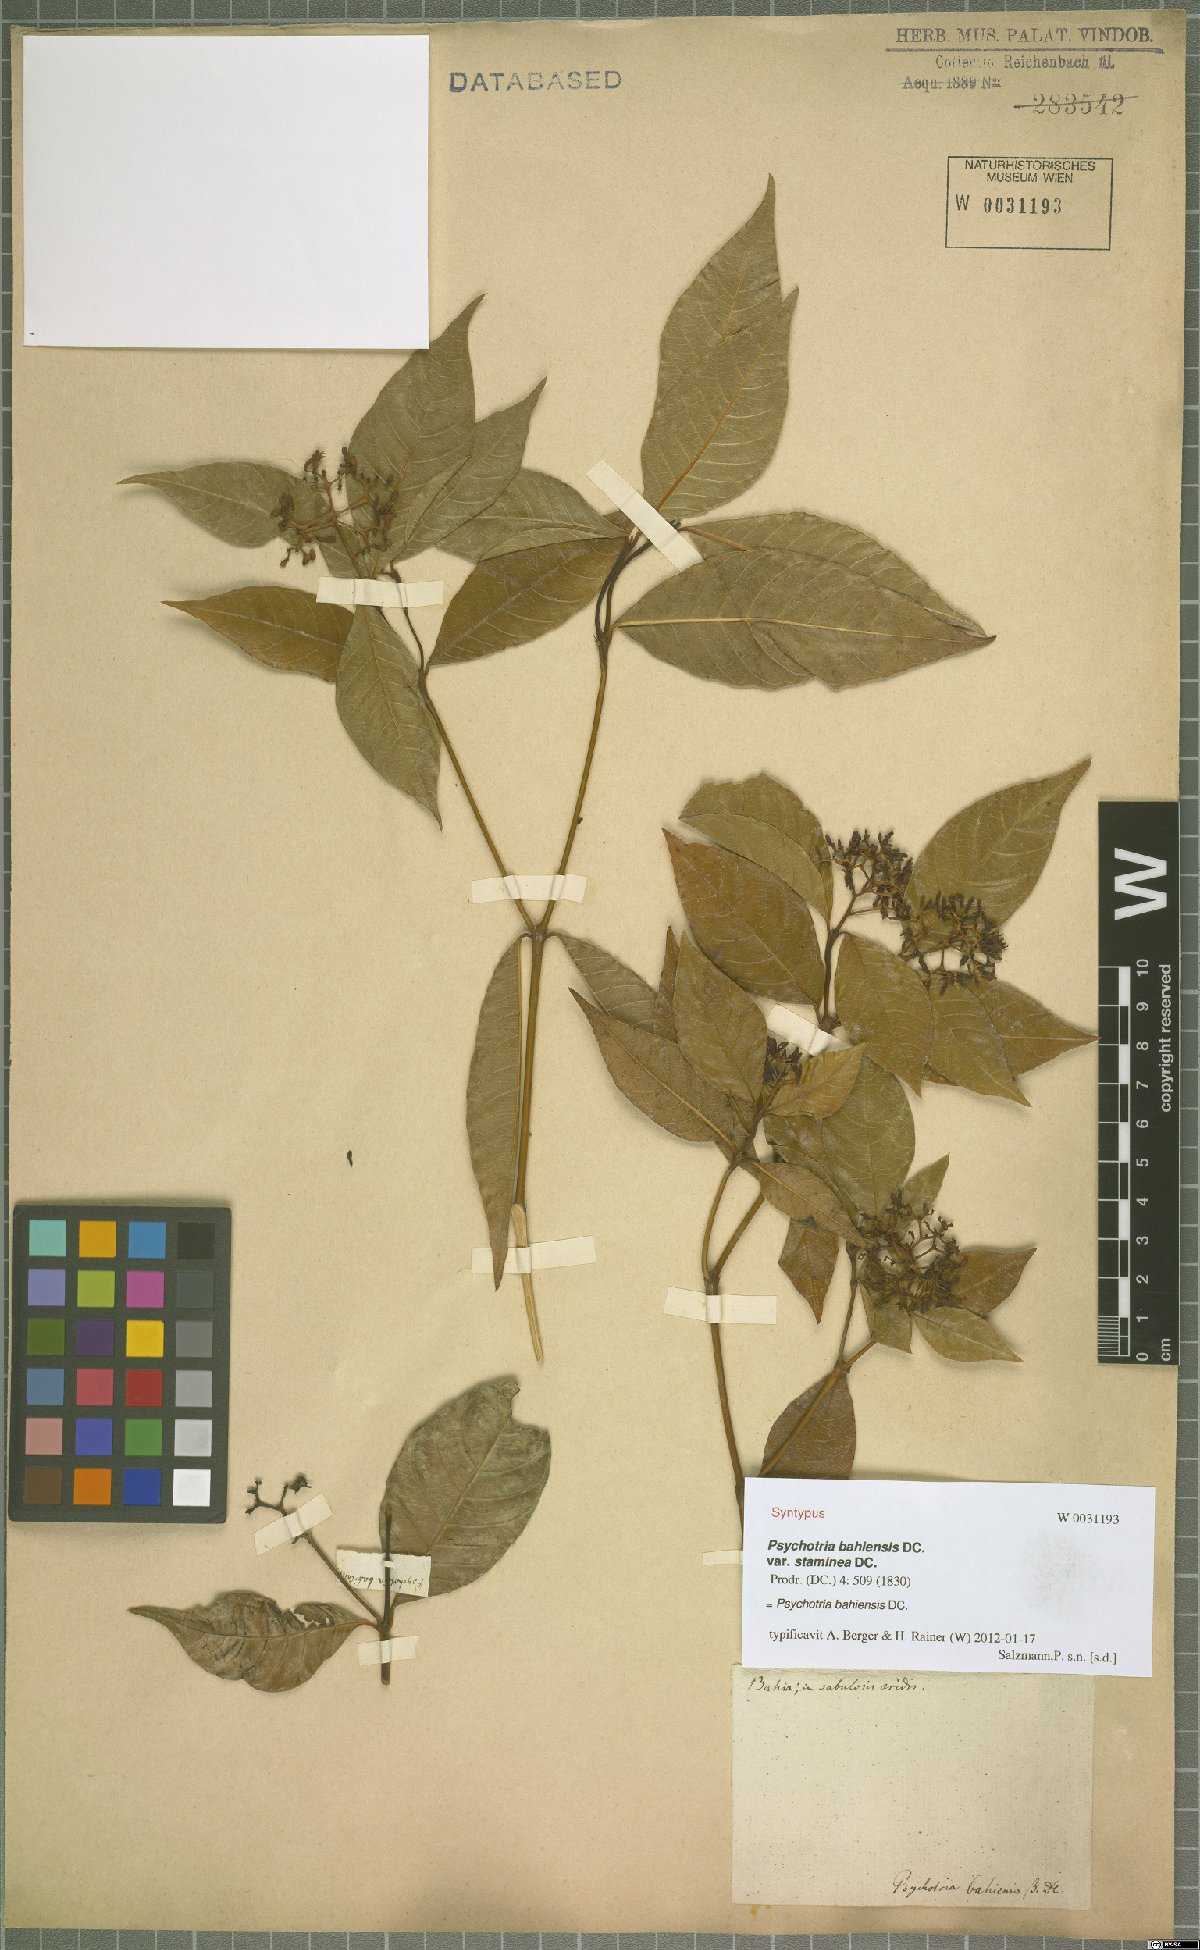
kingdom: Plantae
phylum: Tracheophyta
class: Magnoliopsida
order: Gentianales
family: Rubiaceae
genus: Psychotria
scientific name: Psychotria bahiensis
